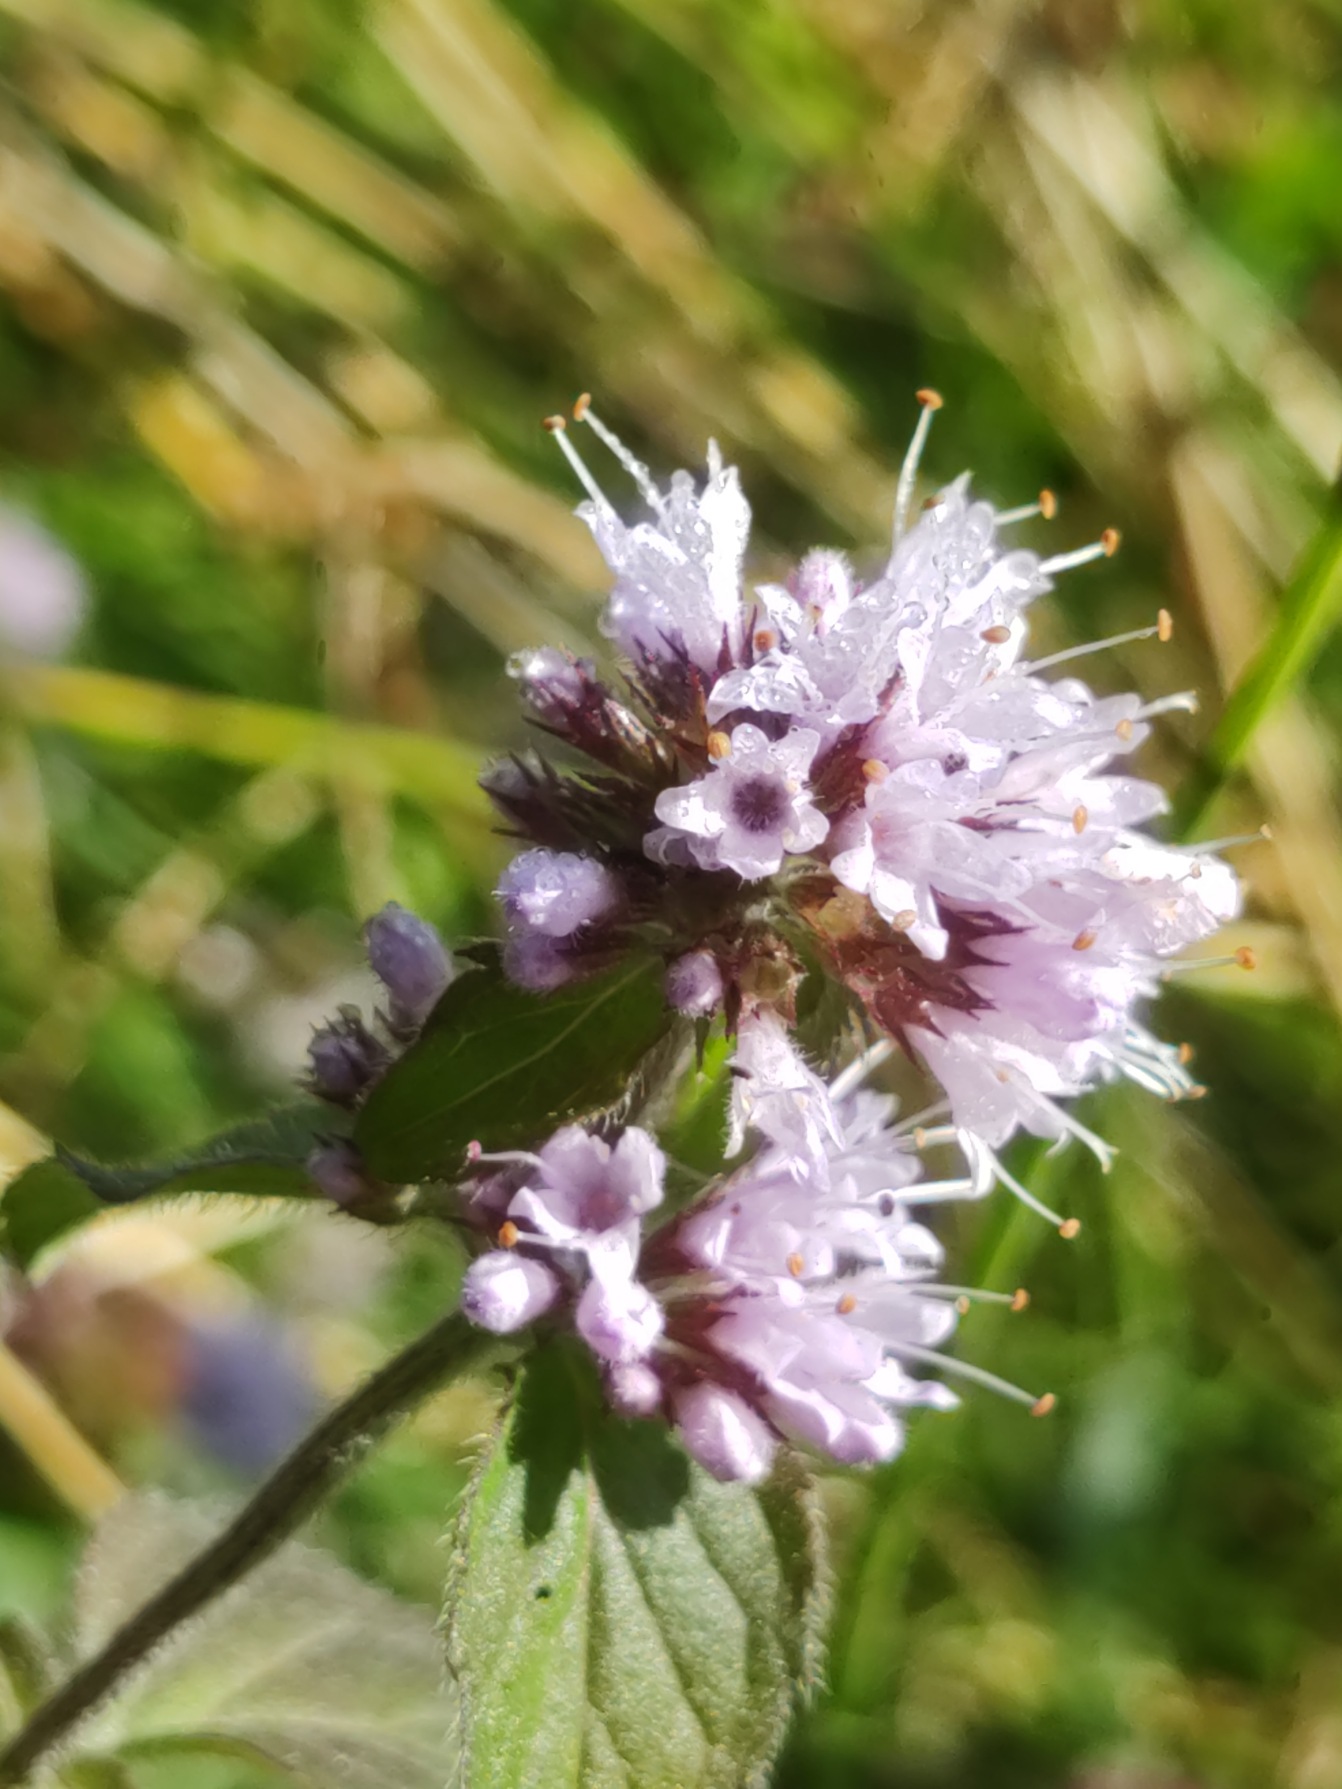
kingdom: Plantae
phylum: Tracheophyta
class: Magnoliopsida
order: Lamiales
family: Lamiaceae
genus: Mentha
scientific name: Mentha aquatica
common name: Vand-mynte
